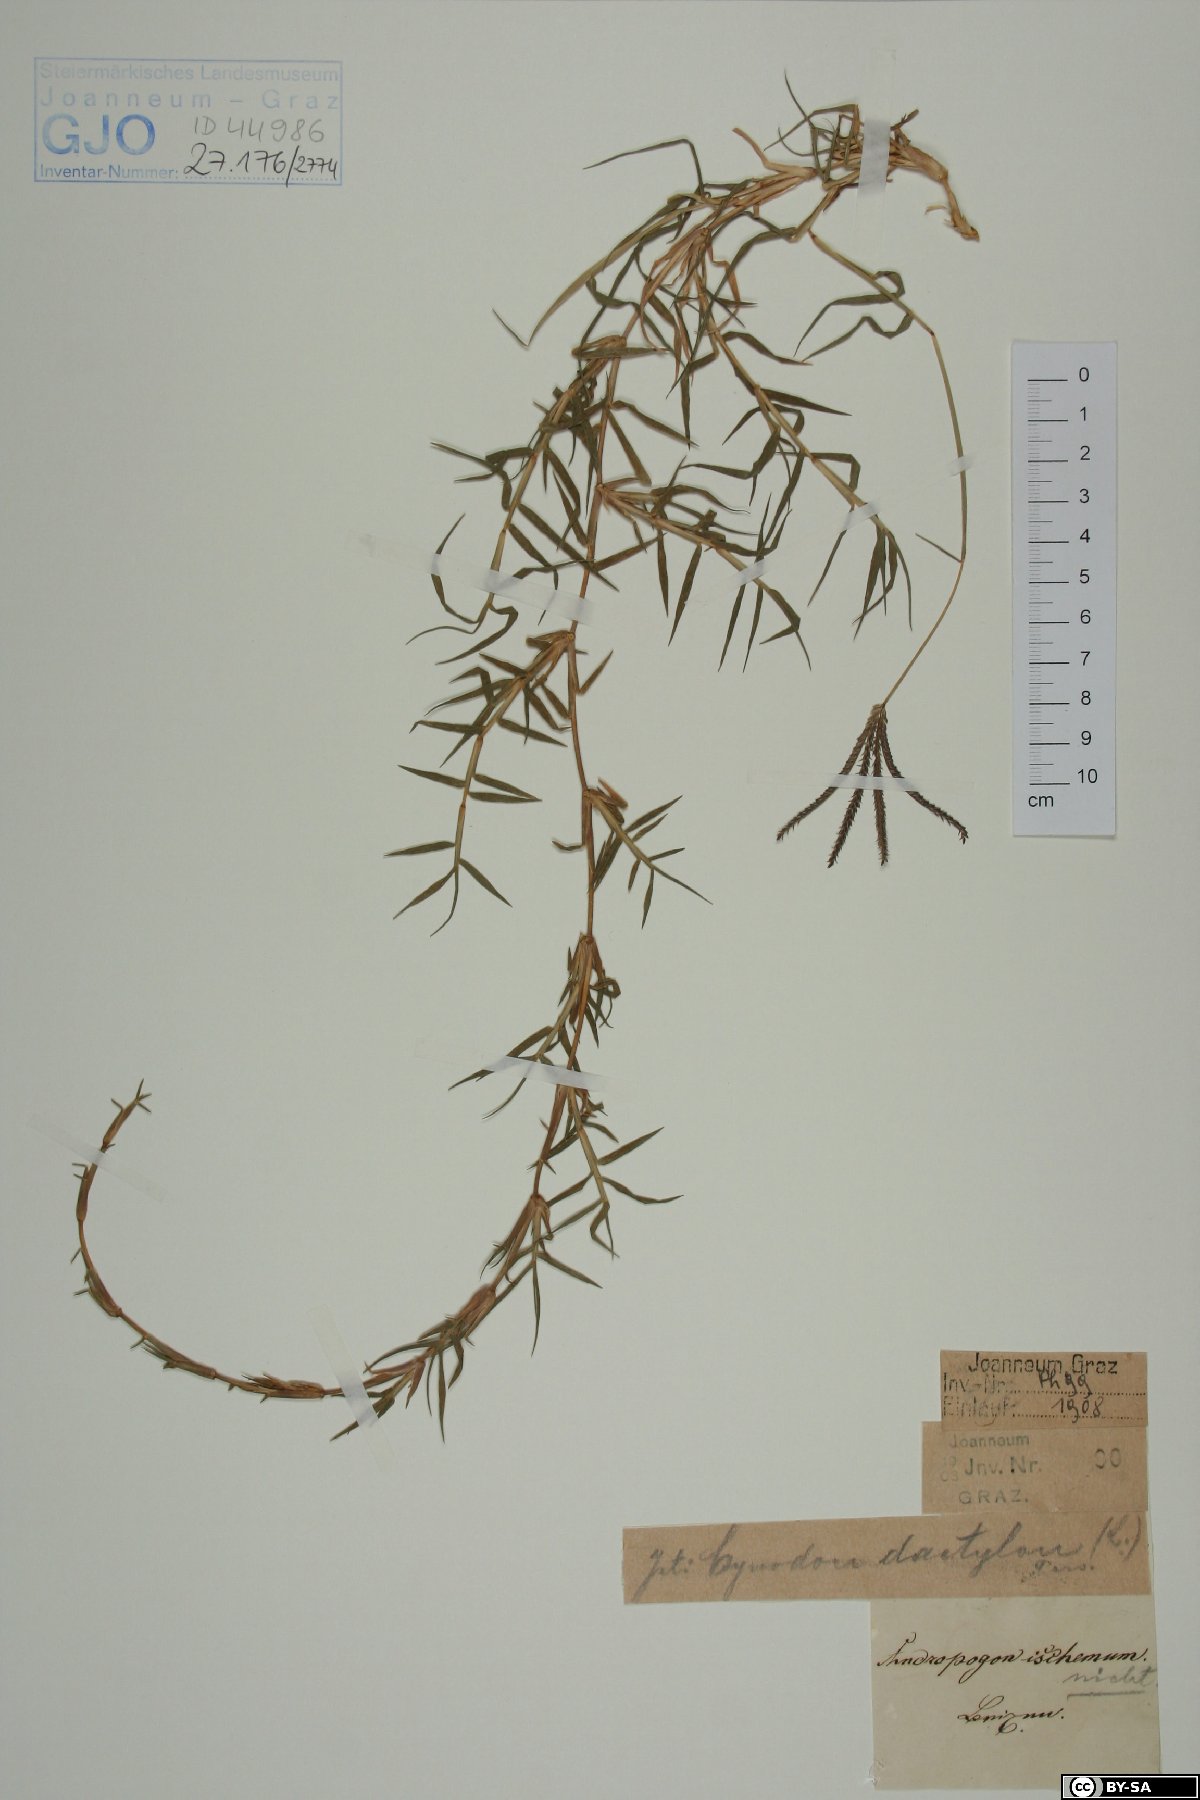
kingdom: Plantae
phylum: Tracheophyta
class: Liliopsida
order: Poales
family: Poaceae
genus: Bothriochloa
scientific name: Bothriochloa ischaemum
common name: Yellow bluestem
